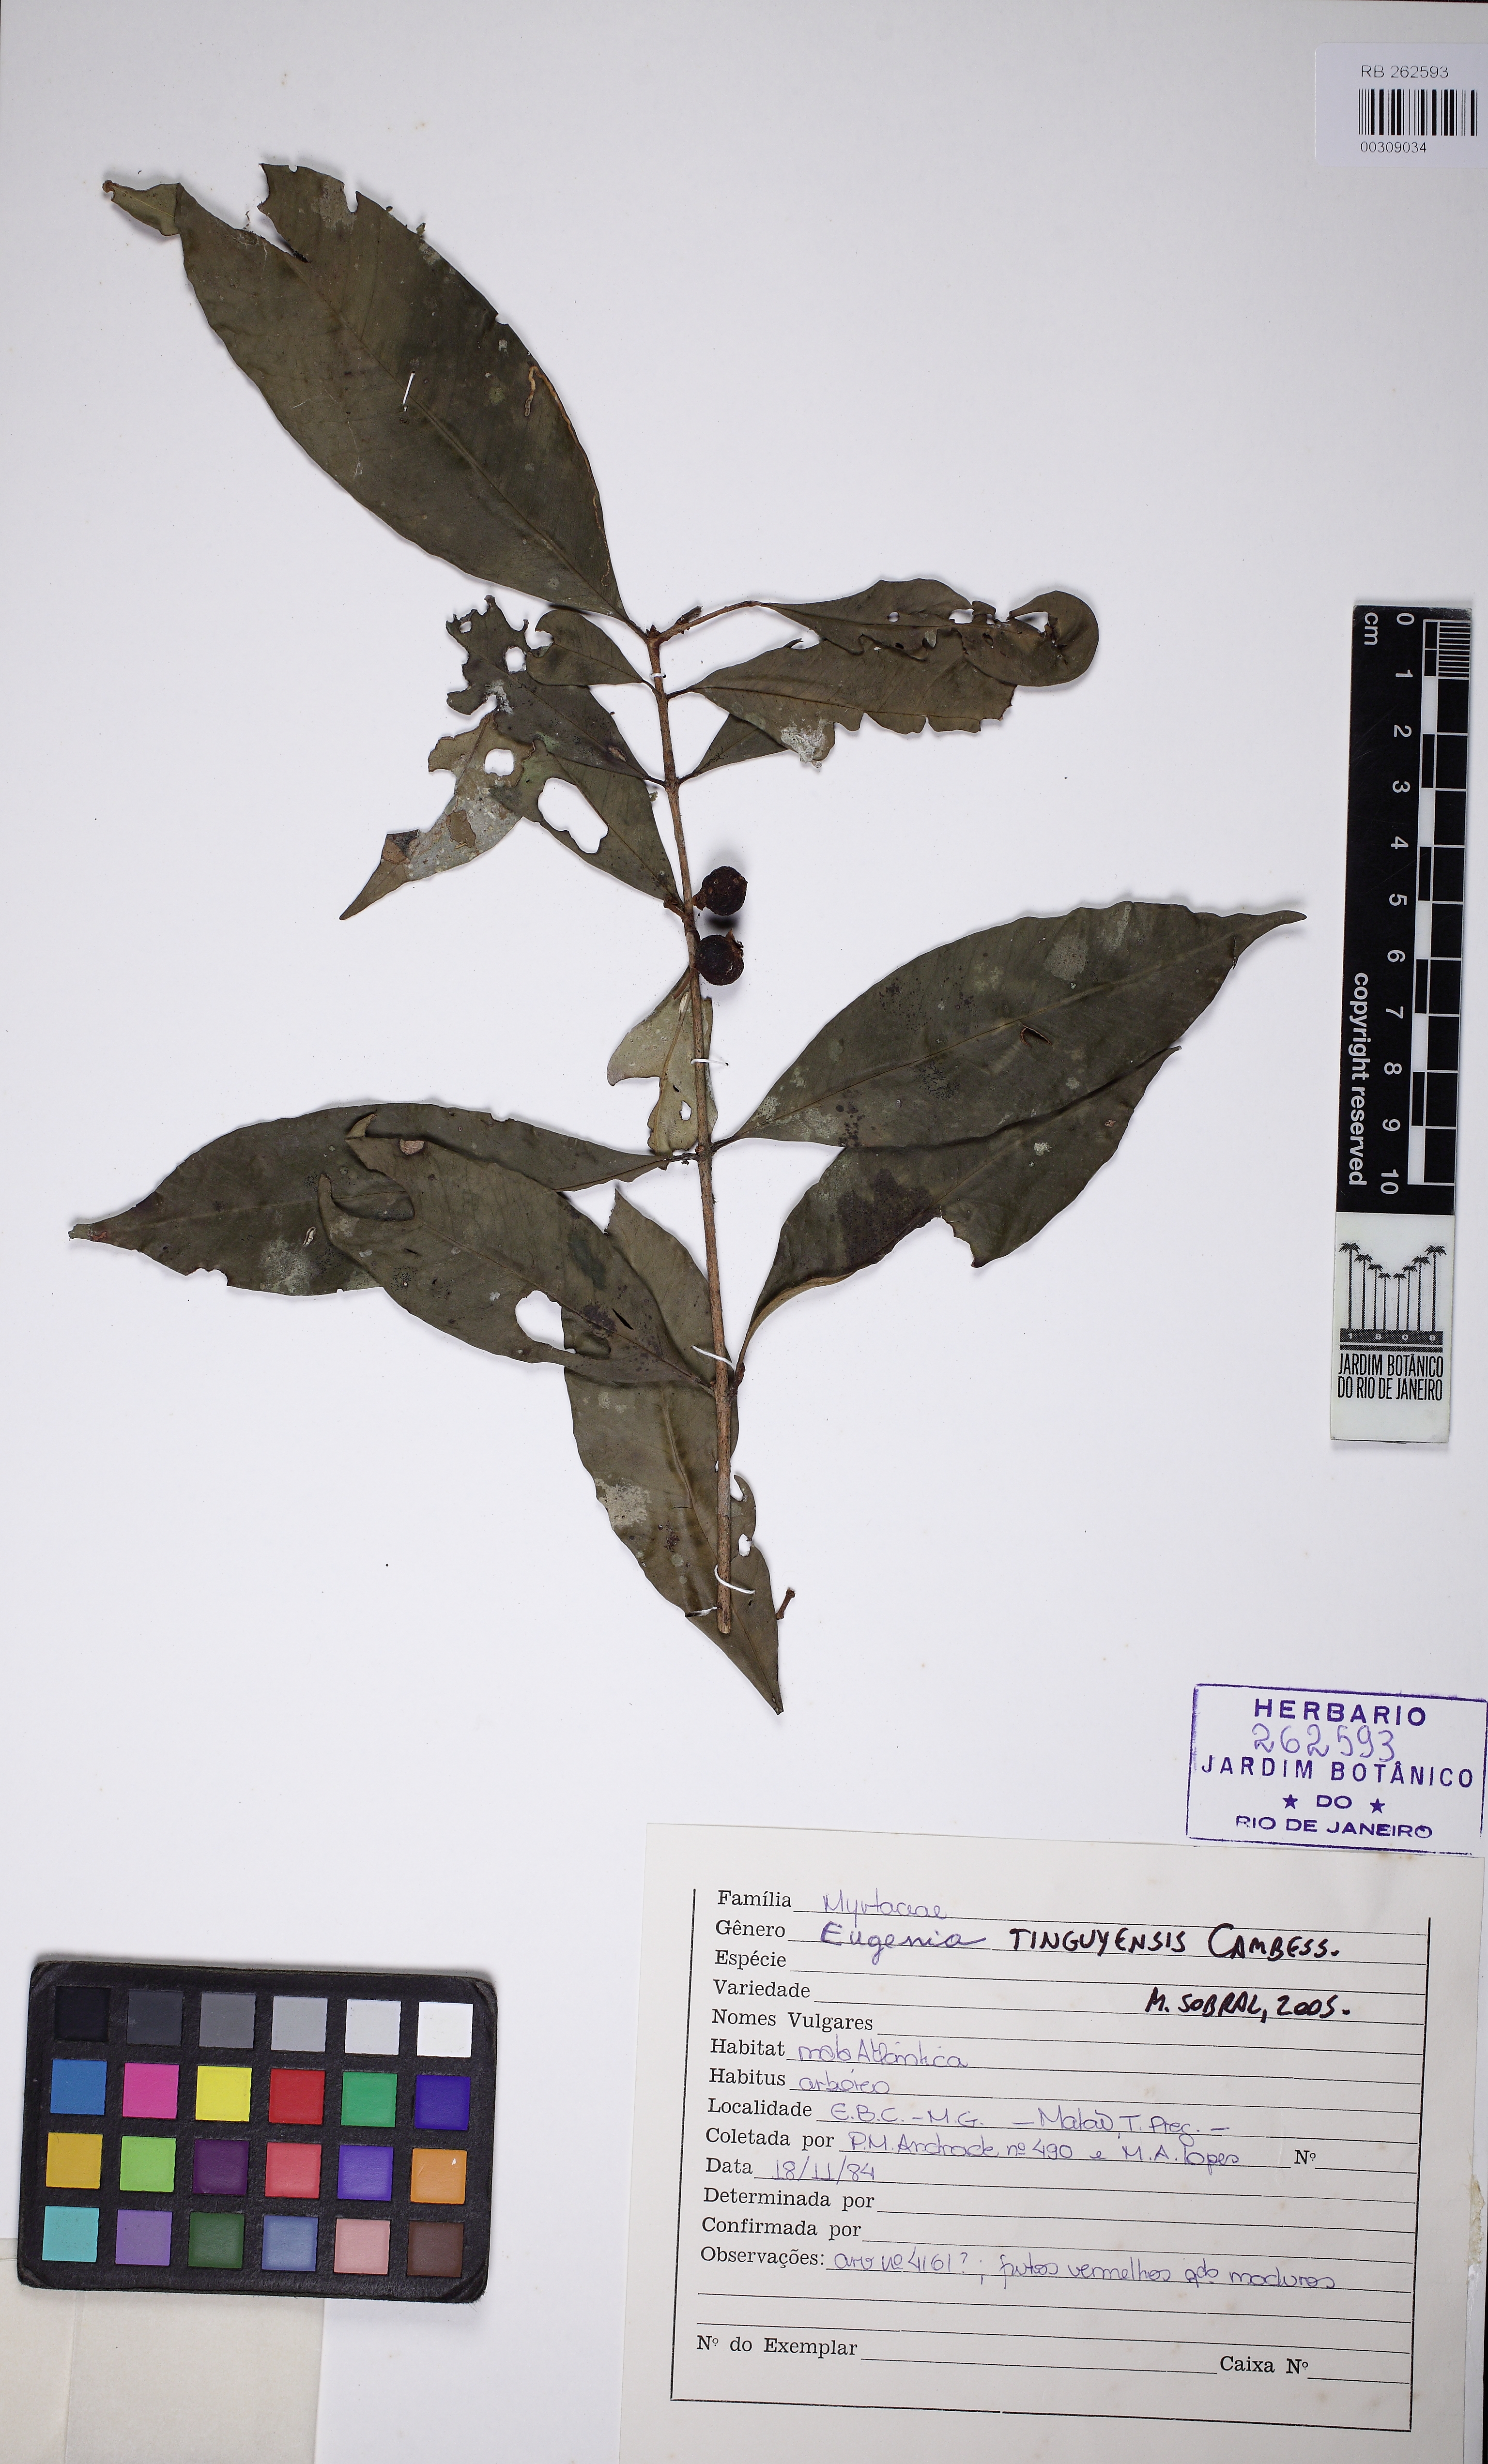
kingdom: Plantae
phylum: Tracheophyta
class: Magnoliopsida
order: Myrtales
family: Myrtaceae
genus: Eugenia
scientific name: Eugenia pisiformis
